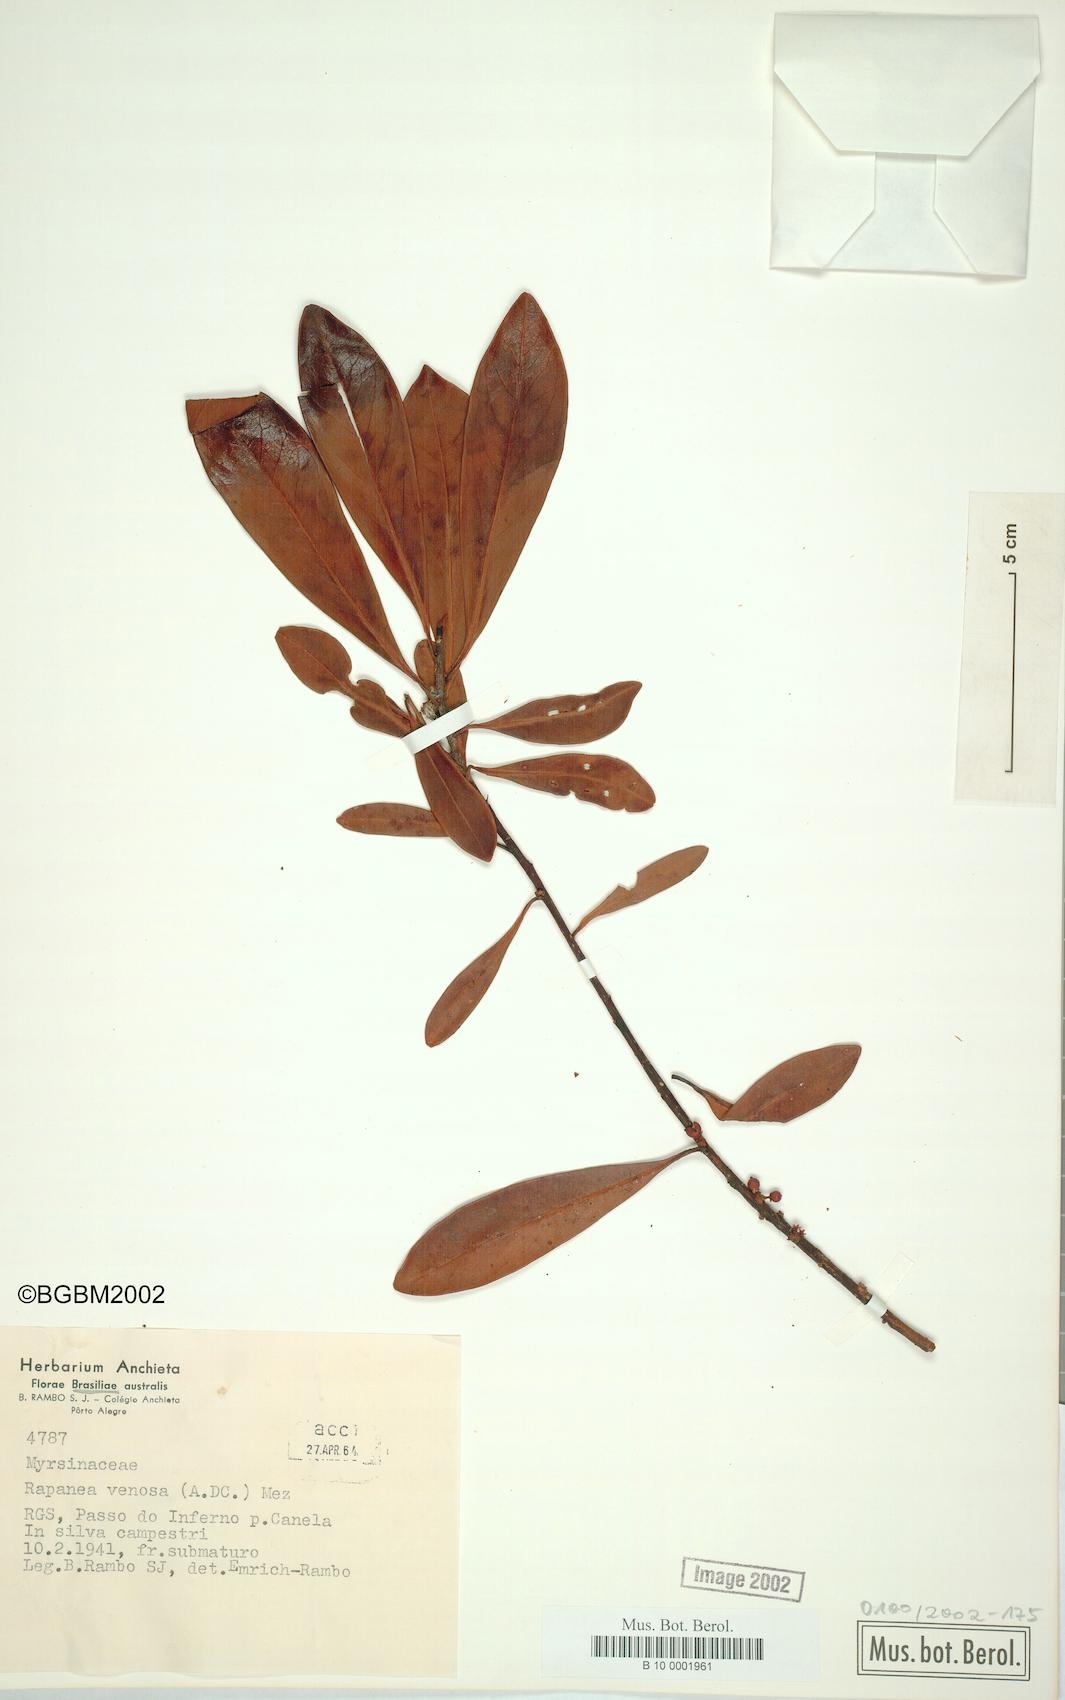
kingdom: Plantae
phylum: Tracheophyta
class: Magnoliopsida
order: Ericales
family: Primulaceae
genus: Myrsine
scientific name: Myrsine
